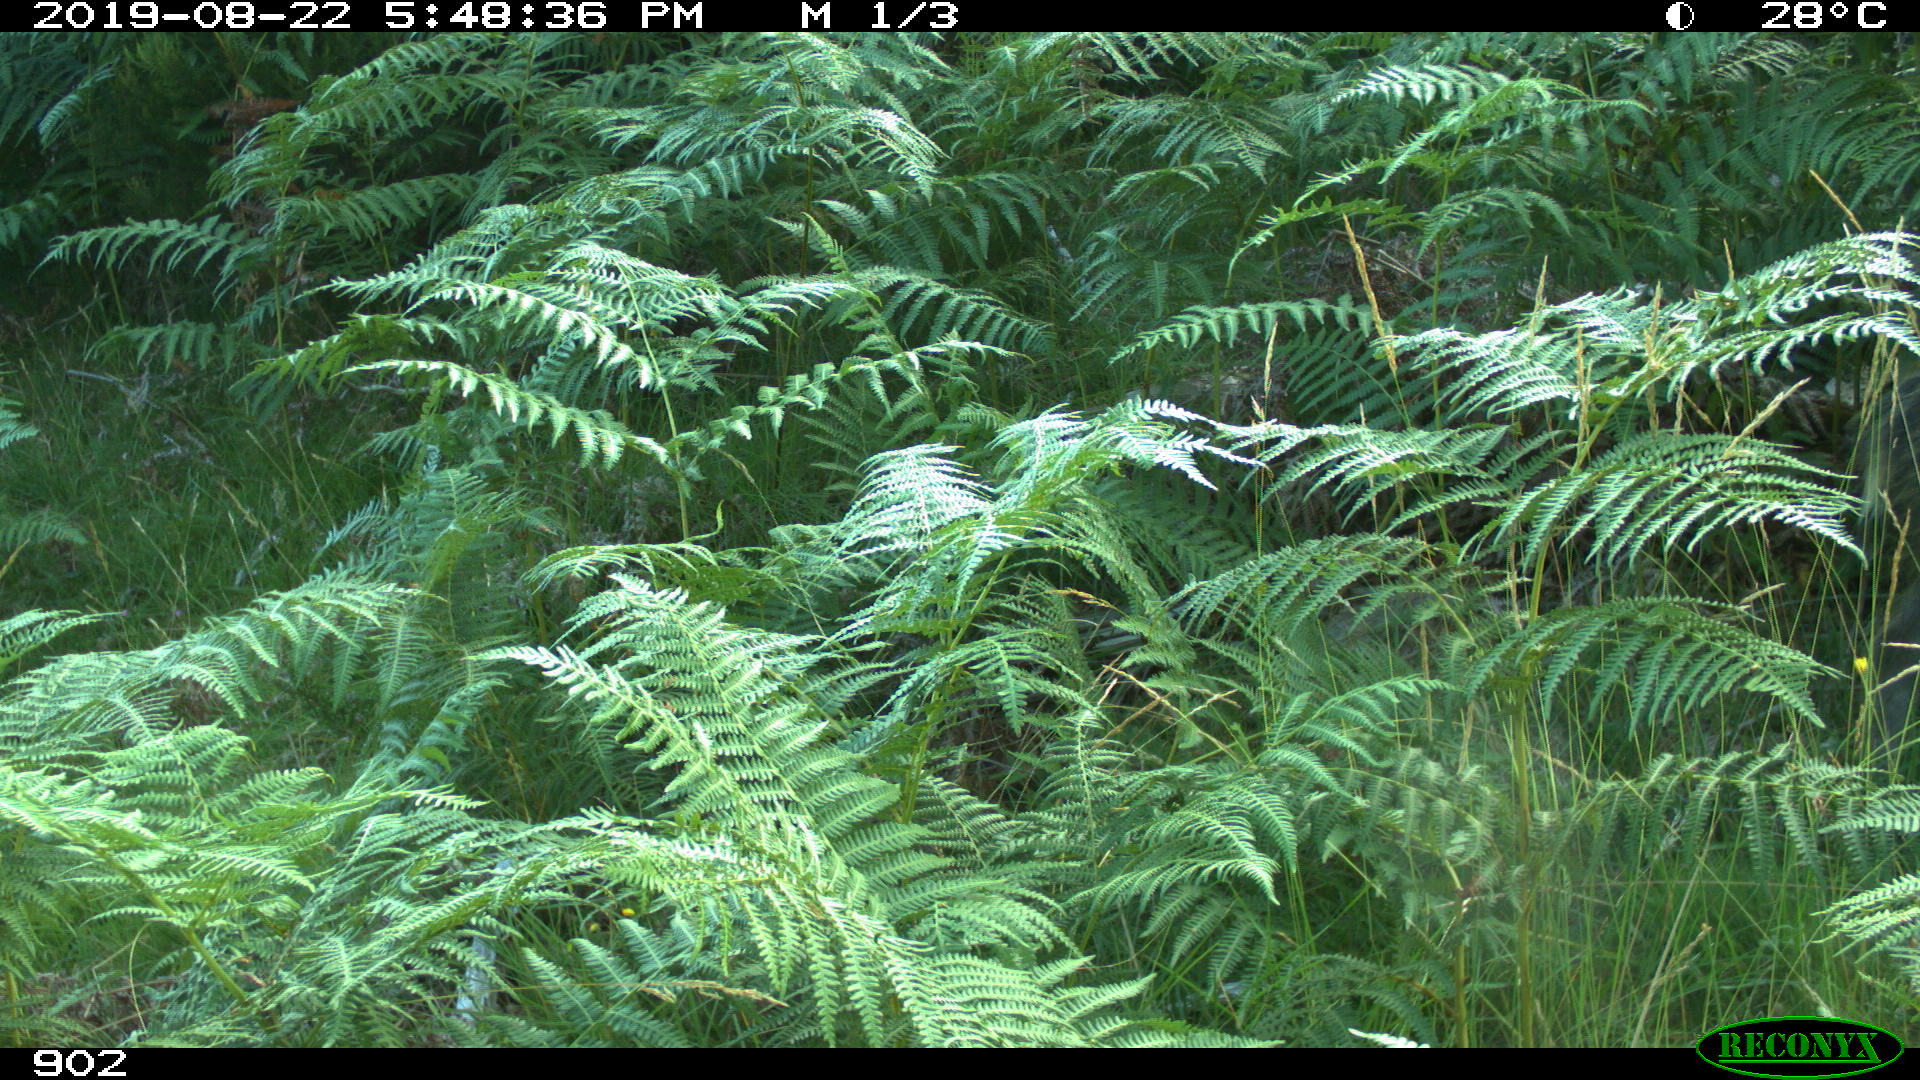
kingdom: Animalia
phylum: Chordata
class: Mammalia
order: Artiodactyla
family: Suidae
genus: Sus
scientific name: Sus scrofa
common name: Wild boar
